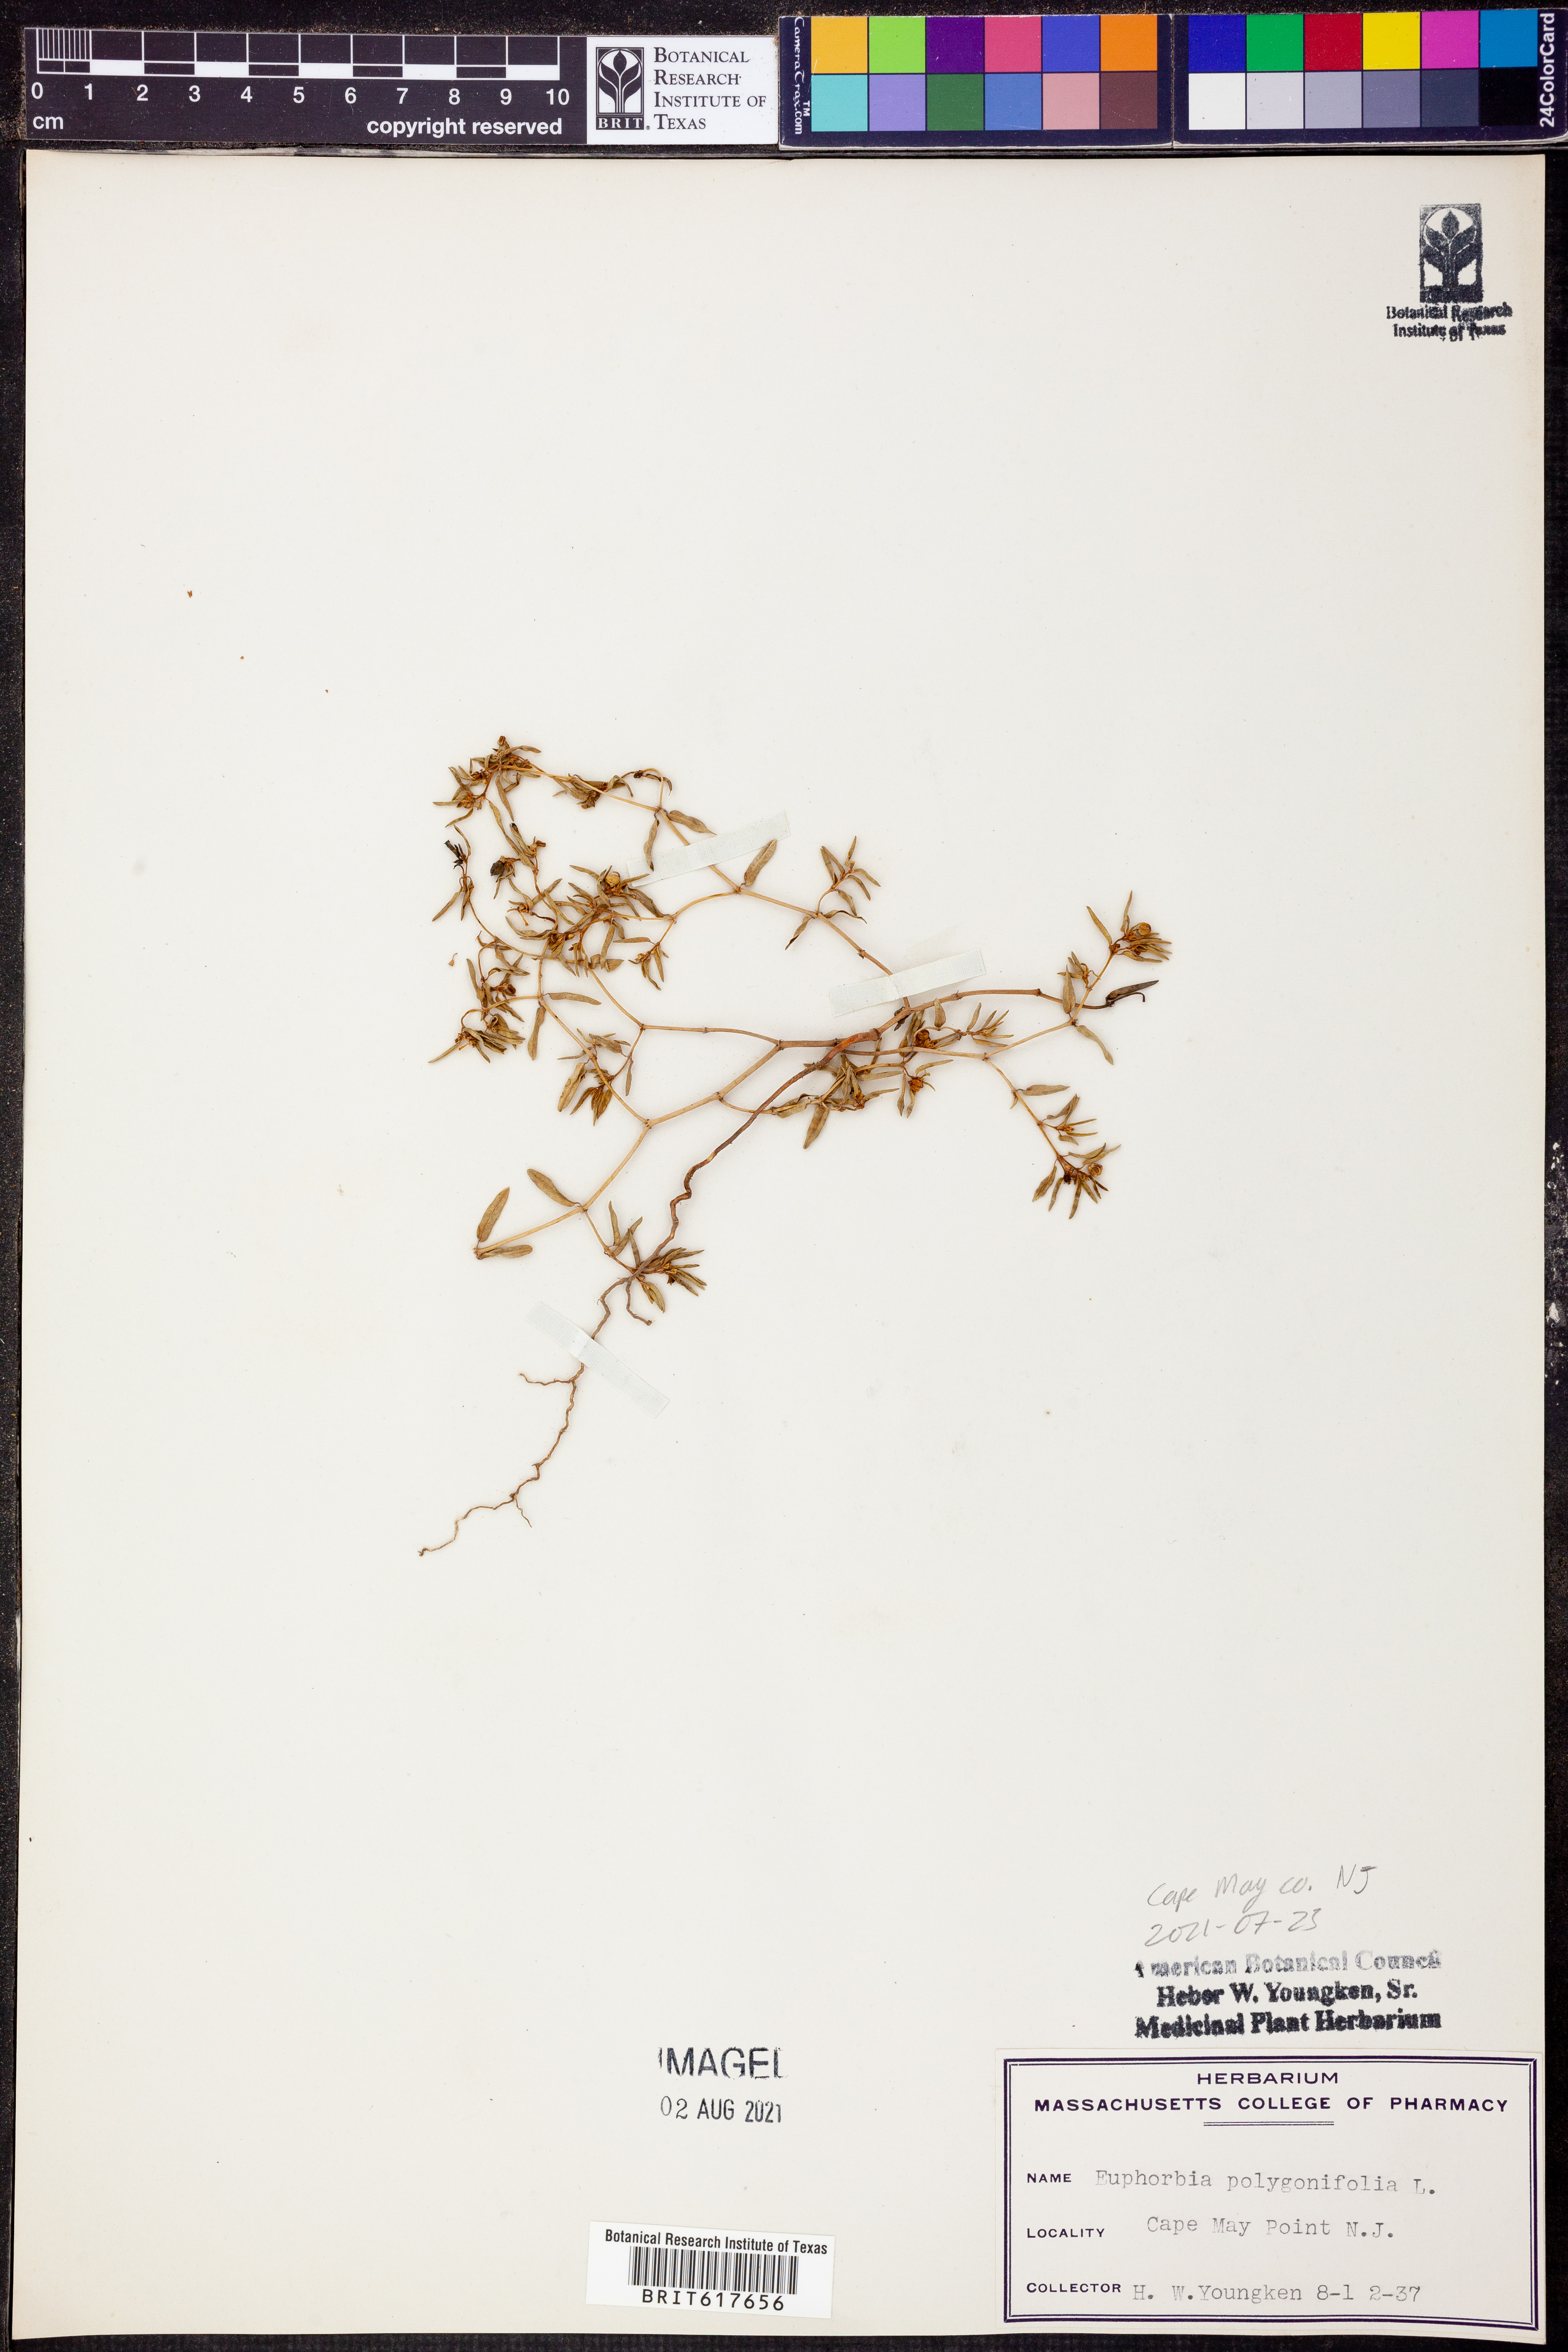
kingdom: Plantae
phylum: Tracheophyta
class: Magnoliopsida
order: Malpighiales
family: Euphorbiaceae
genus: Euphorbia
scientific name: Euphorbia polygonifolia
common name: Knotweed spurge
